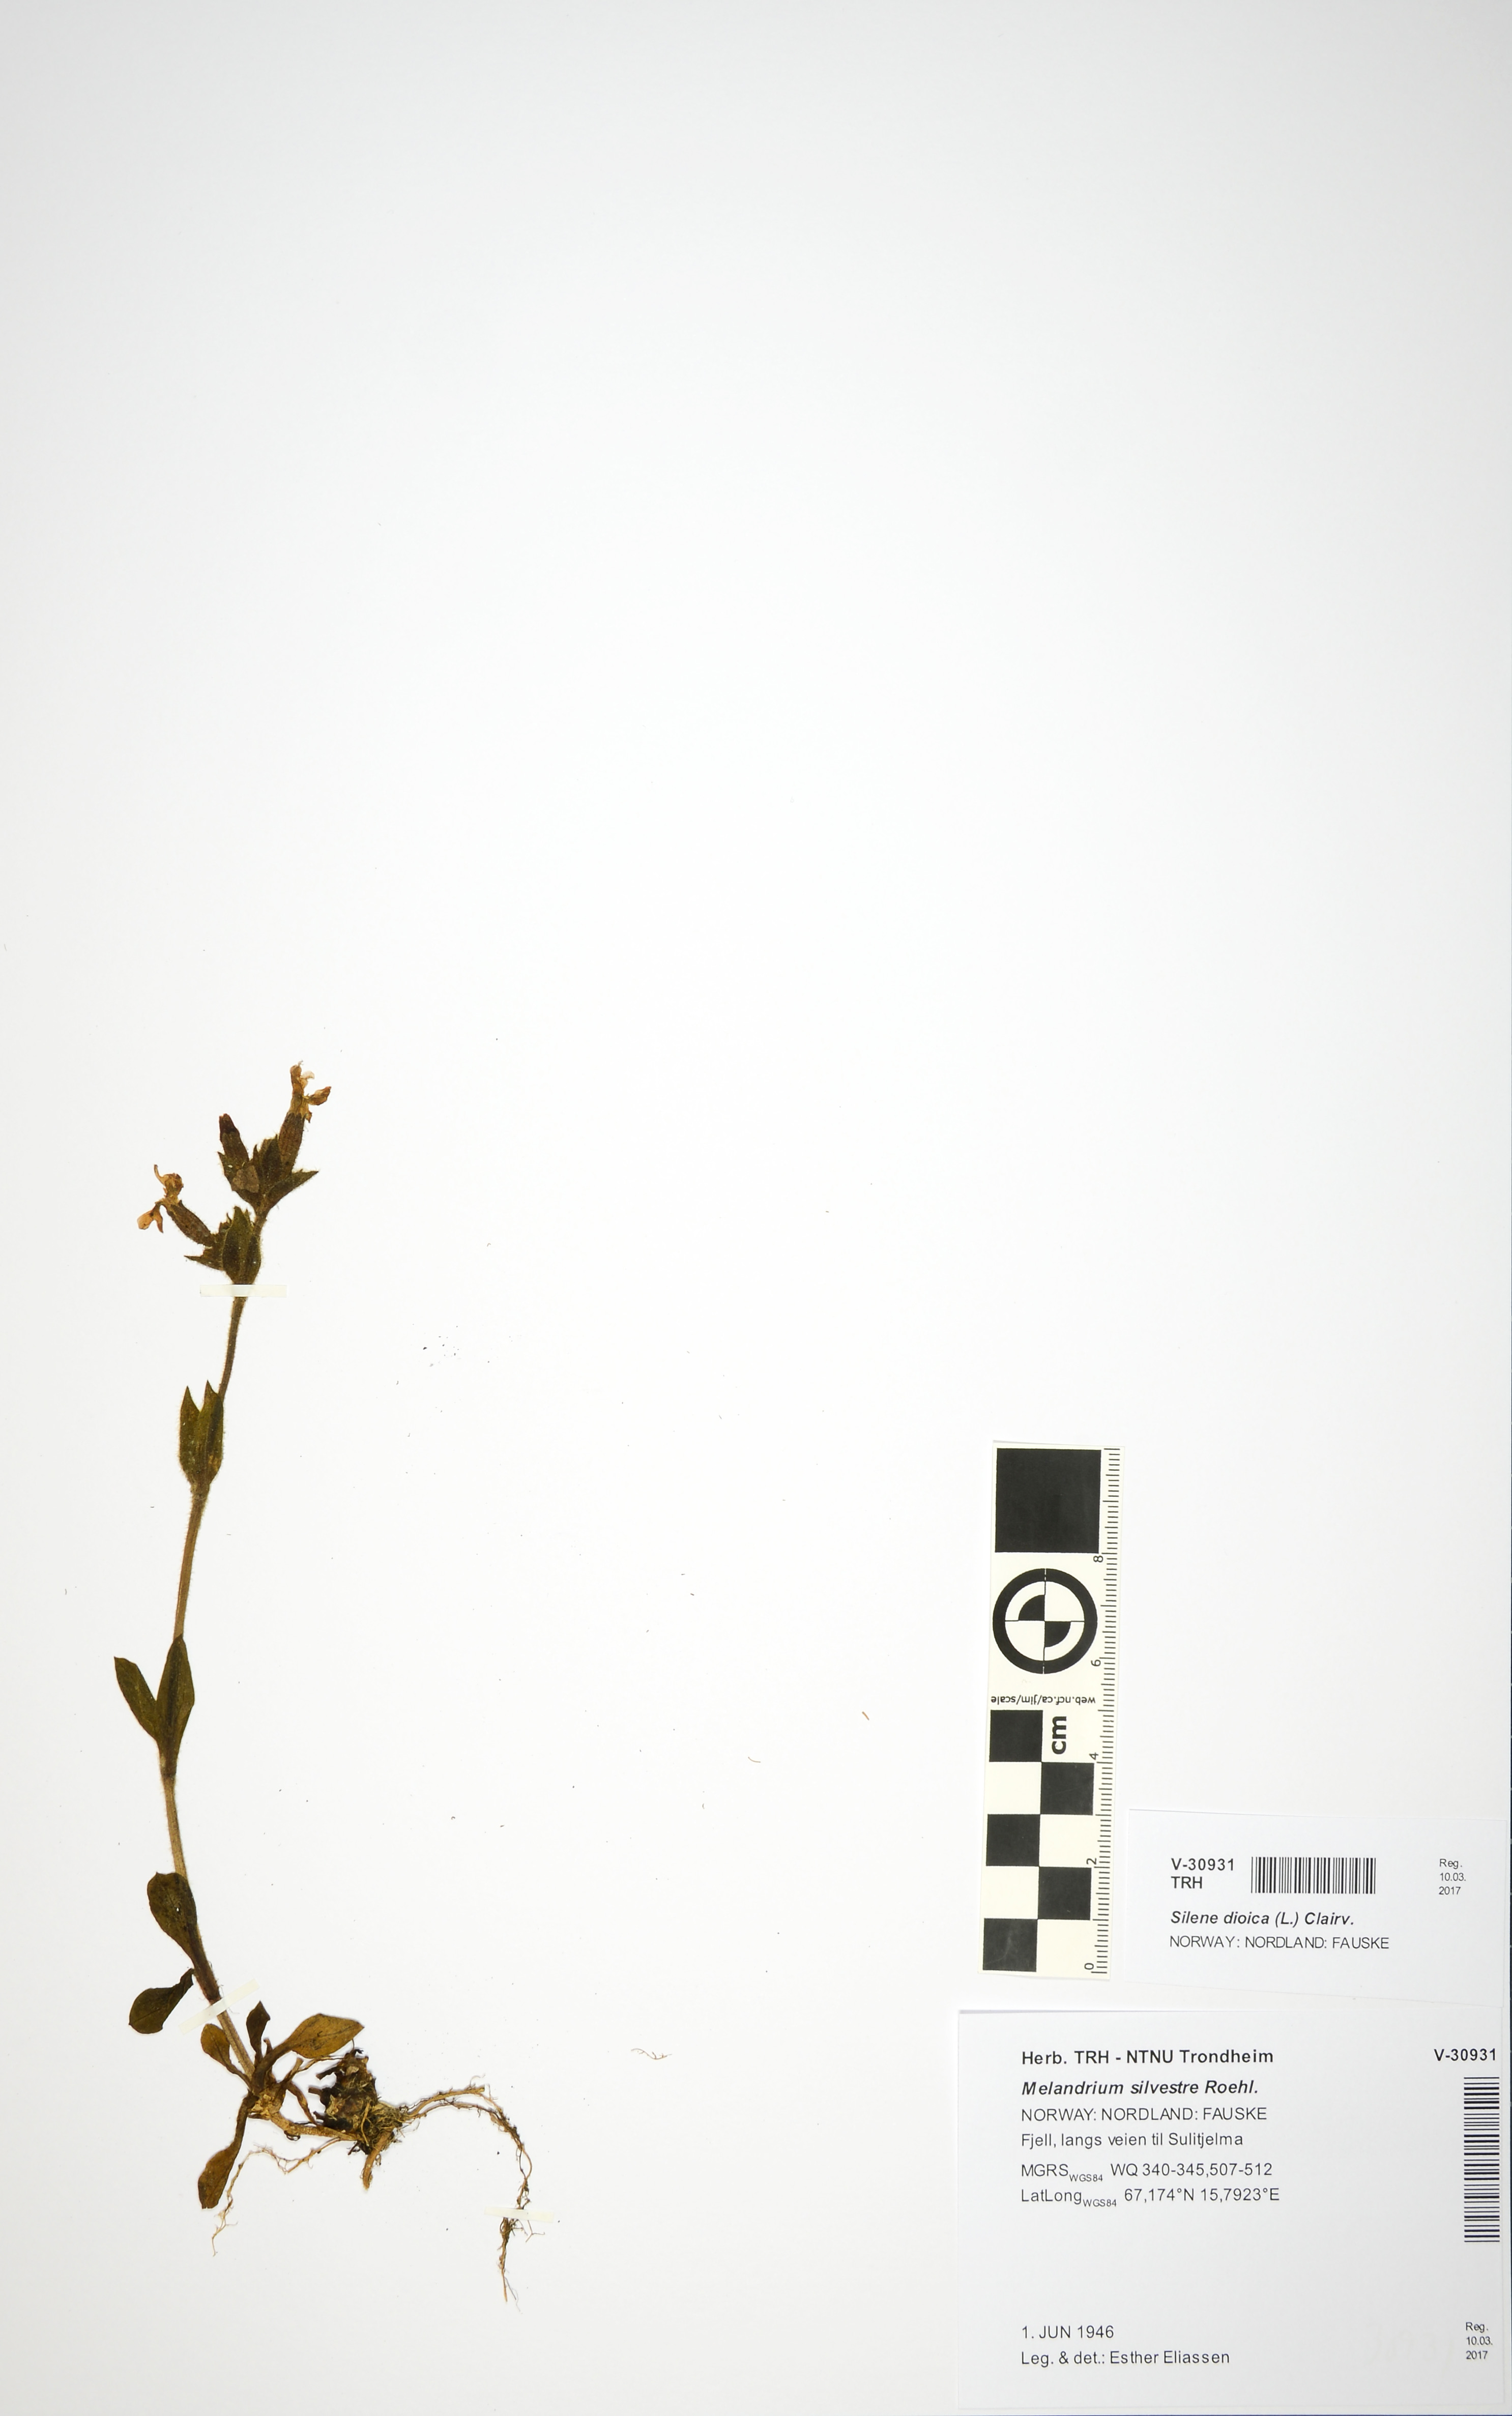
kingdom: Plantae
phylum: Tracheophyta
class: Magnoliopsida
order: Caryophyllales
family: Caryophyllaceae
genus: Silene
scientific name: Silene dioica
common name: Red campion
